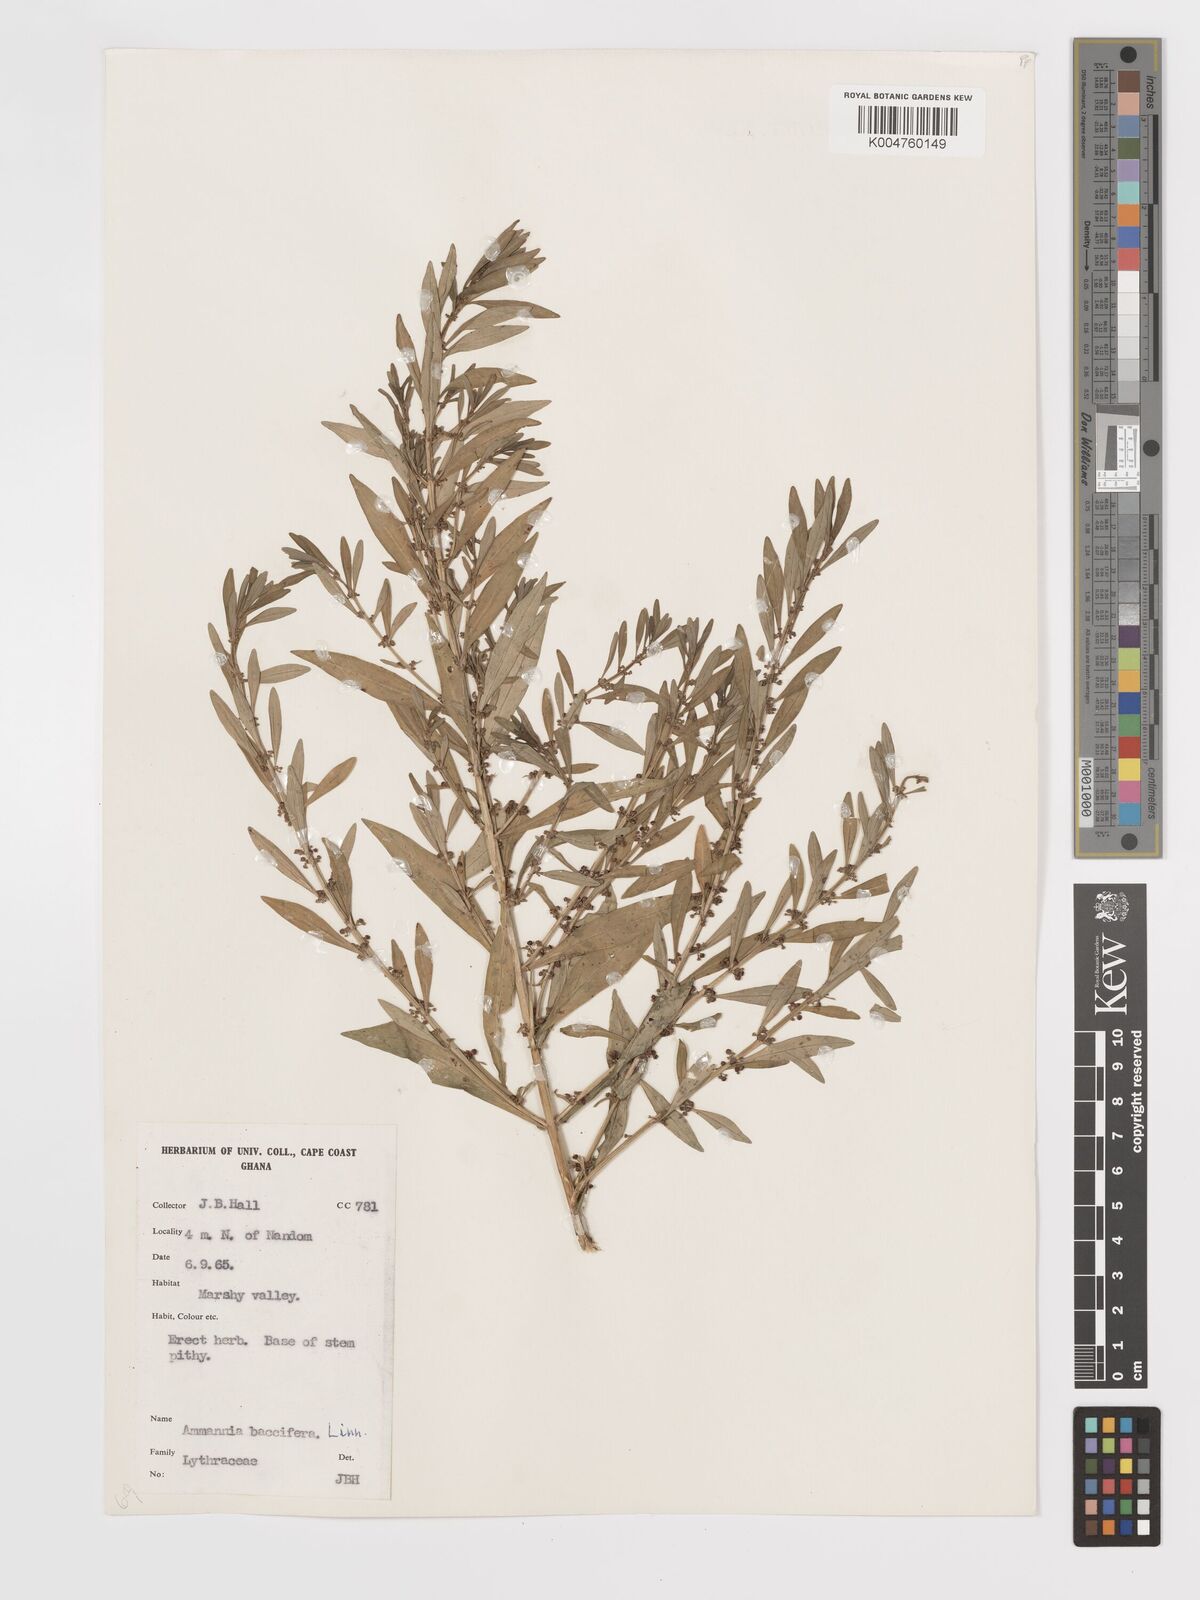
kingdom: Plantae
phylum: Tracheophyta
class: Magnoliopsida
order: Myrtales
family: Lythraceae
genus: Ammannia
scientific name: Ammannia
